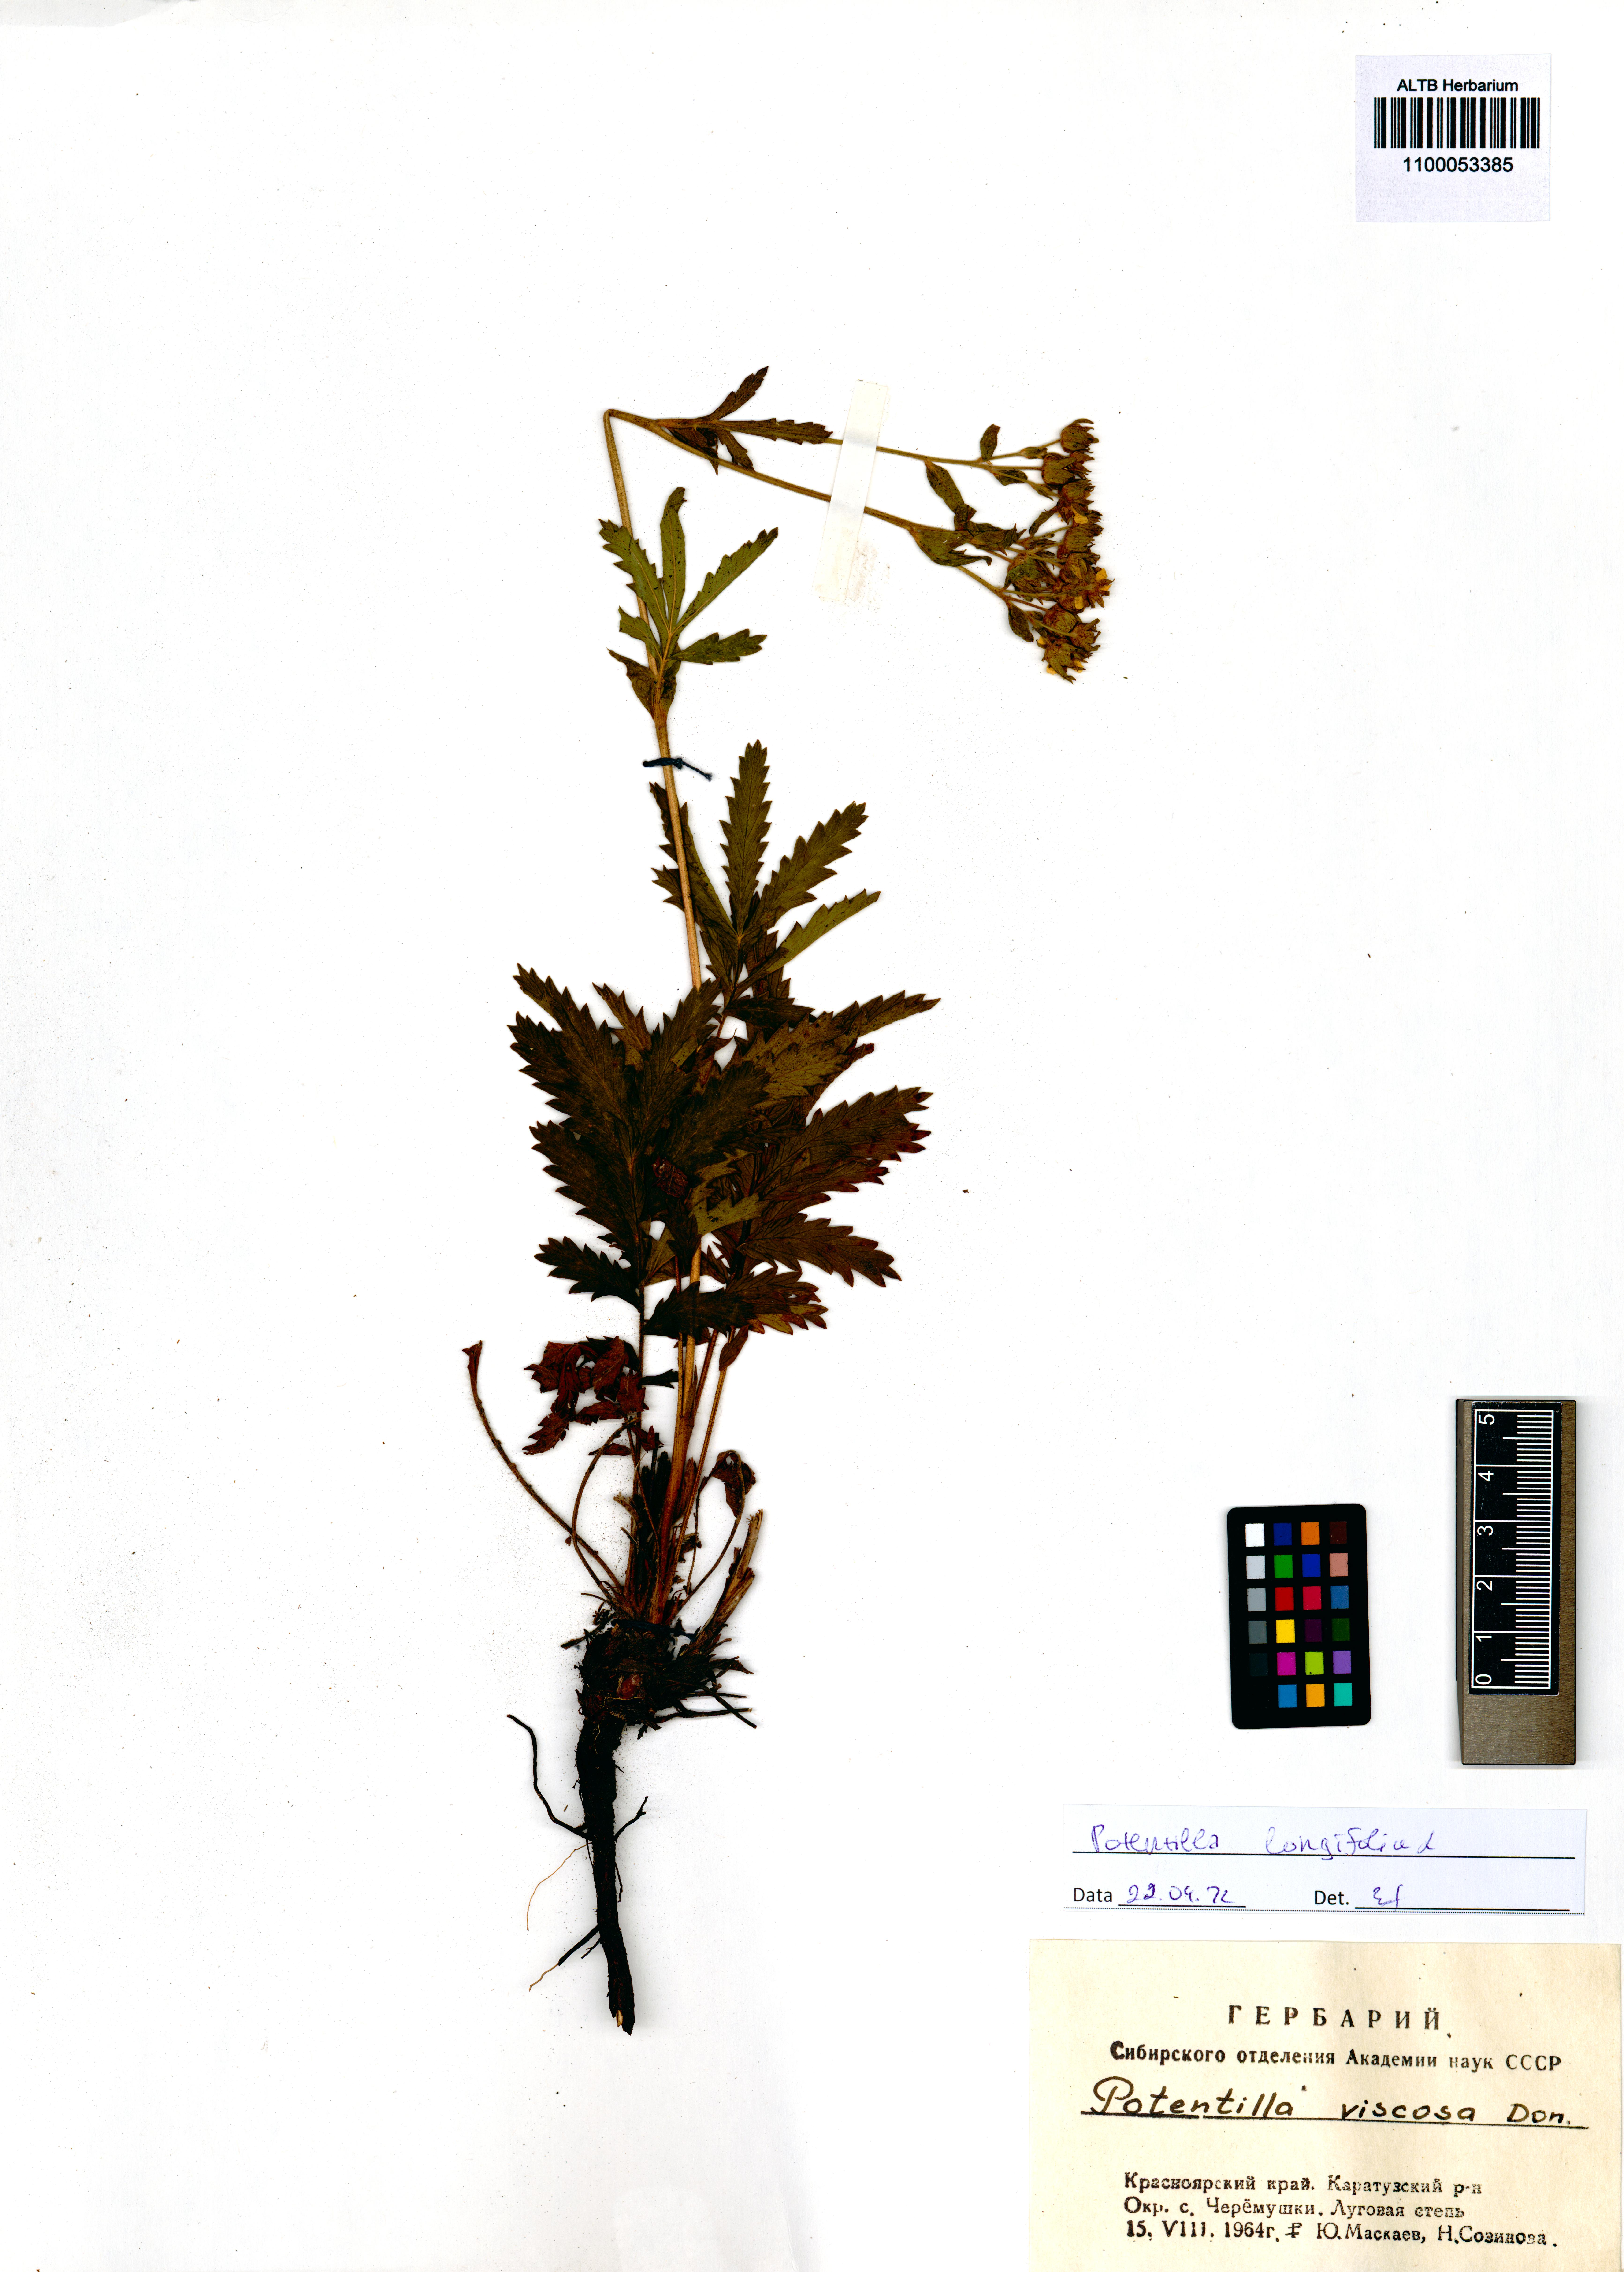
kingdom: Plantae
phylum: Tracheophyta
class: Magnoliopsida
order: Rosales
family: Rosaceae
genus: Potentilla
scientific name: Potentilla longifolia
